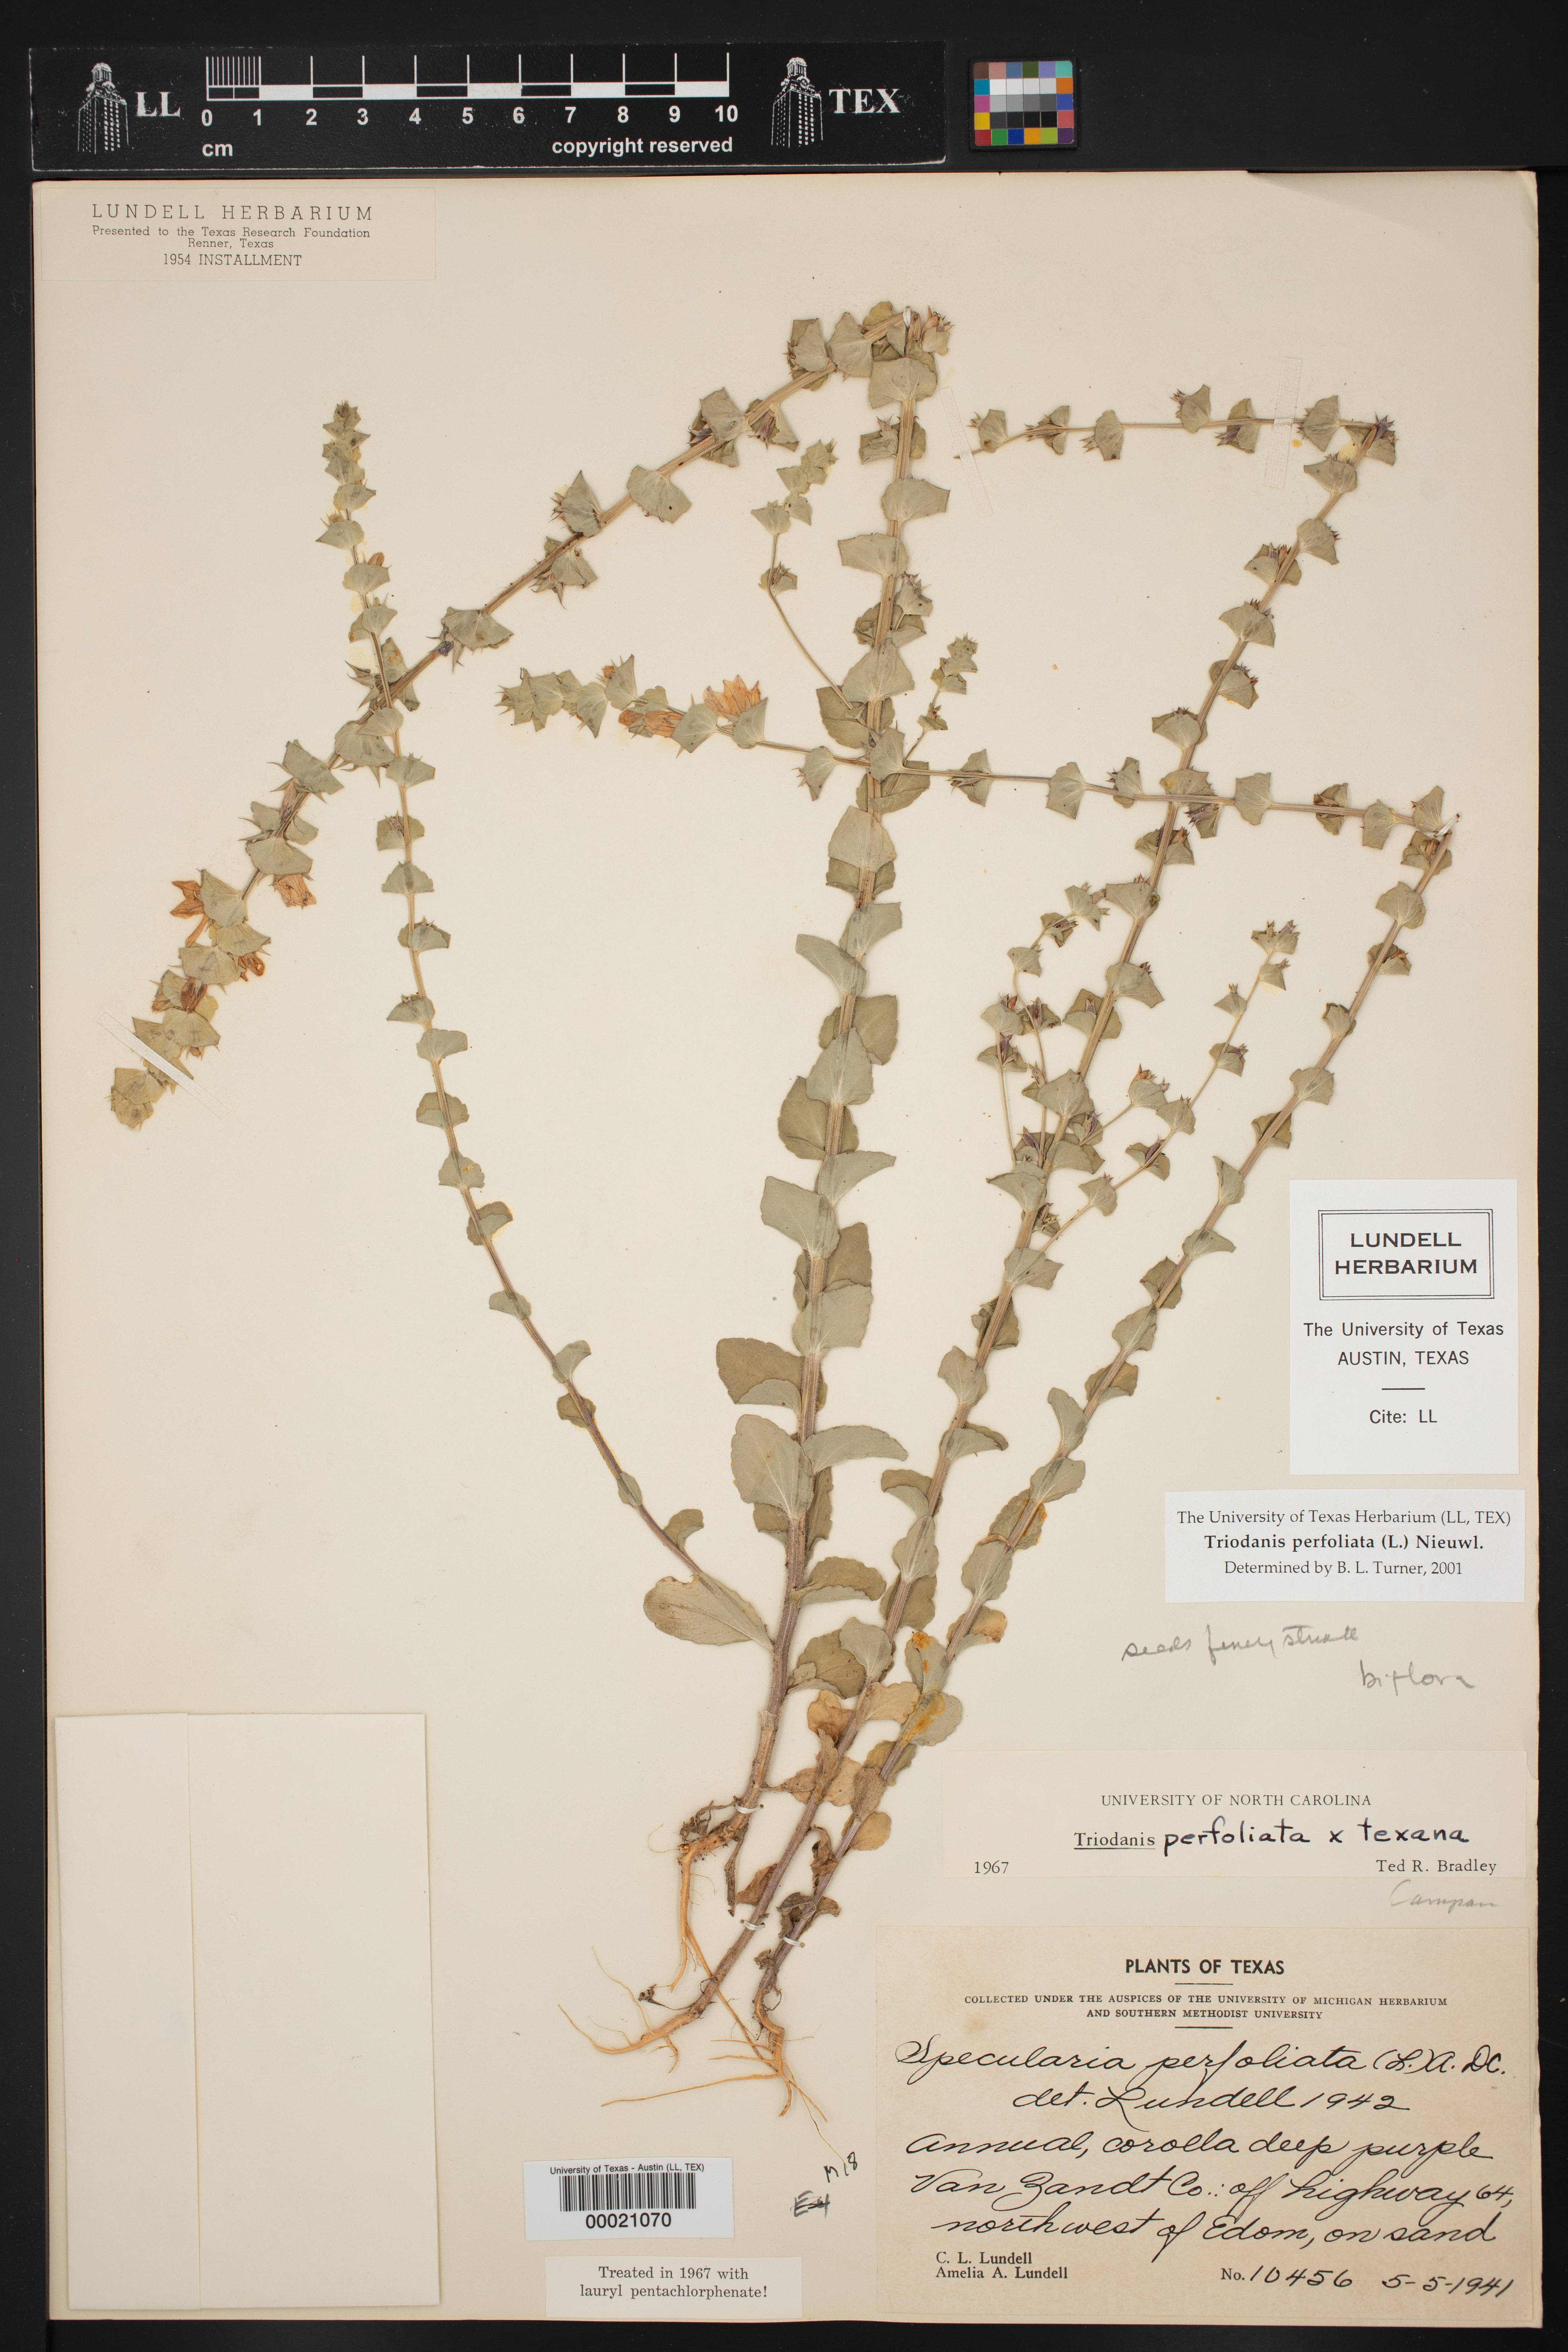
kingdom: Plantae
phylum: Tracheophyta
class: Magnoliopsida
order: Asterales
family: Campanulaceae
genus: Triodanis
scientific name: Triodanis perfoliata
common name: Clasping venus' looking-glass
